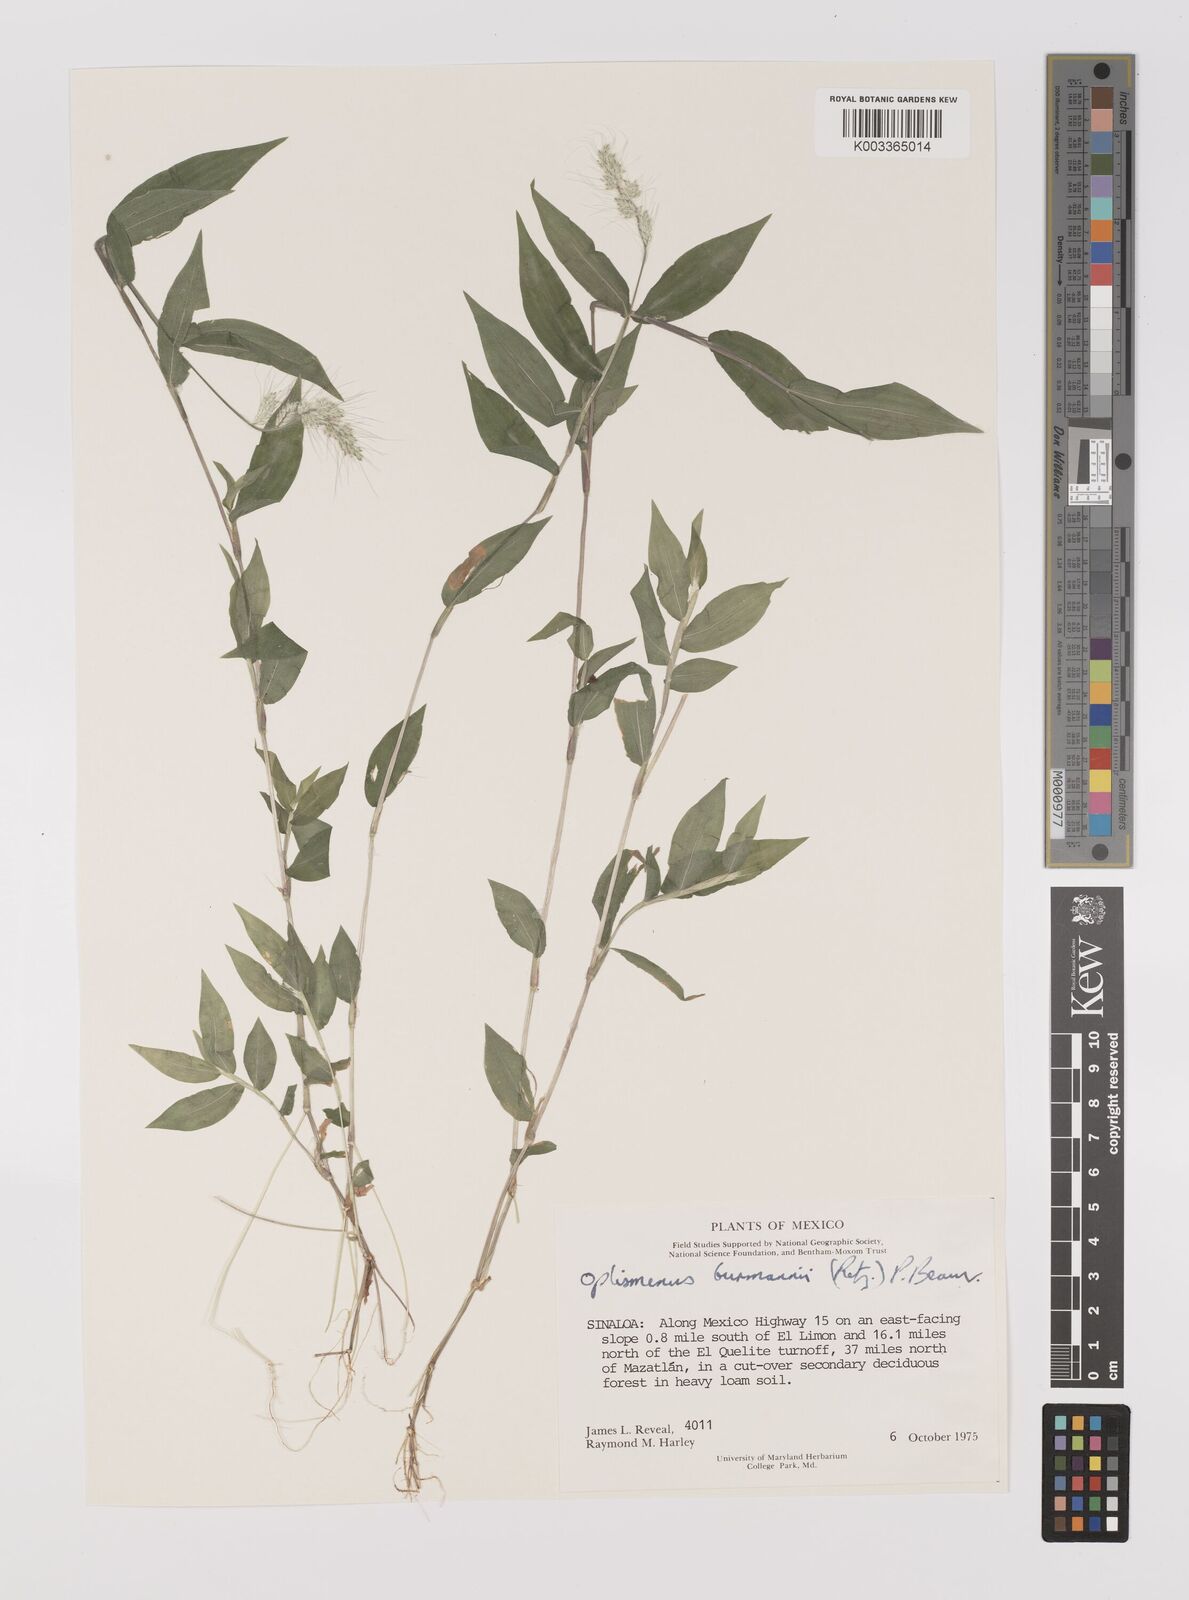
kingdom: Plantae
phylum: Tracheophyta
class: Liliopsida
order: Poales
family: Poaceae
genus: Oplismenus
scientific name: Oplismenus burmanni
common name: Burmann's basketgrass
